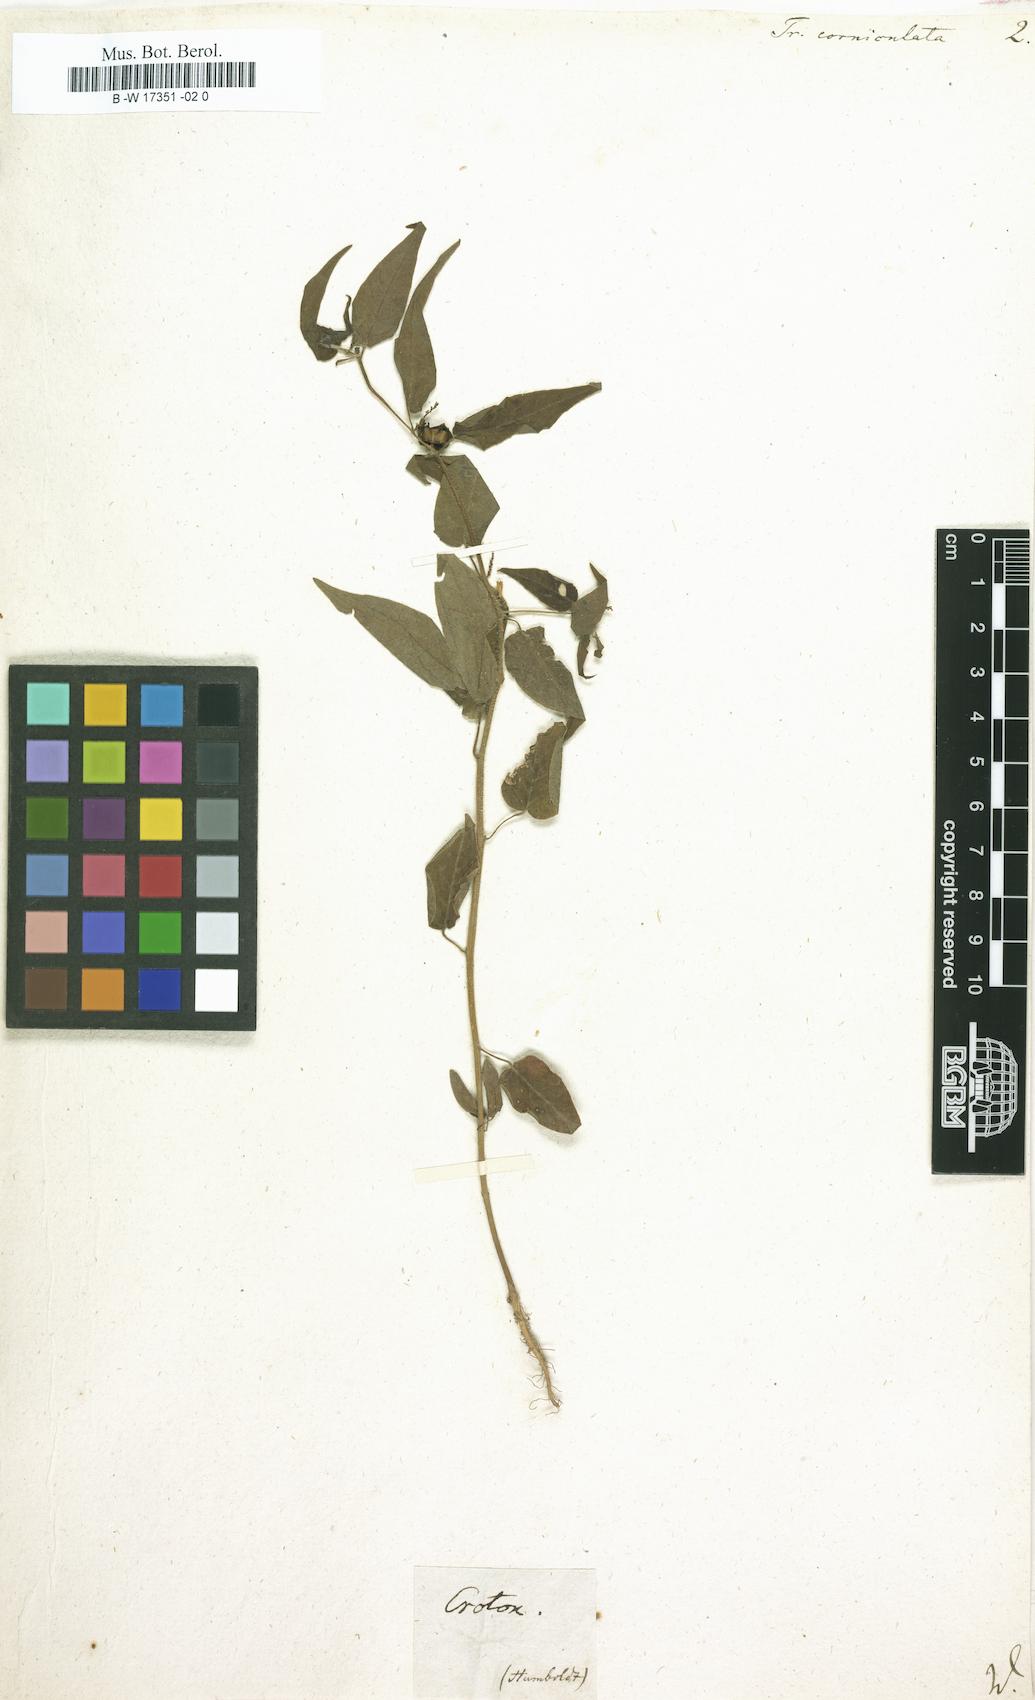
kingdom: Plantae
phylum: Tracheophyta
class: Magnoliopsida
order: Malpighiales
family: Euphorbiaceae
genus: Microstachys
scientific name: Microstachys corniculata
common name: Hato tejas
